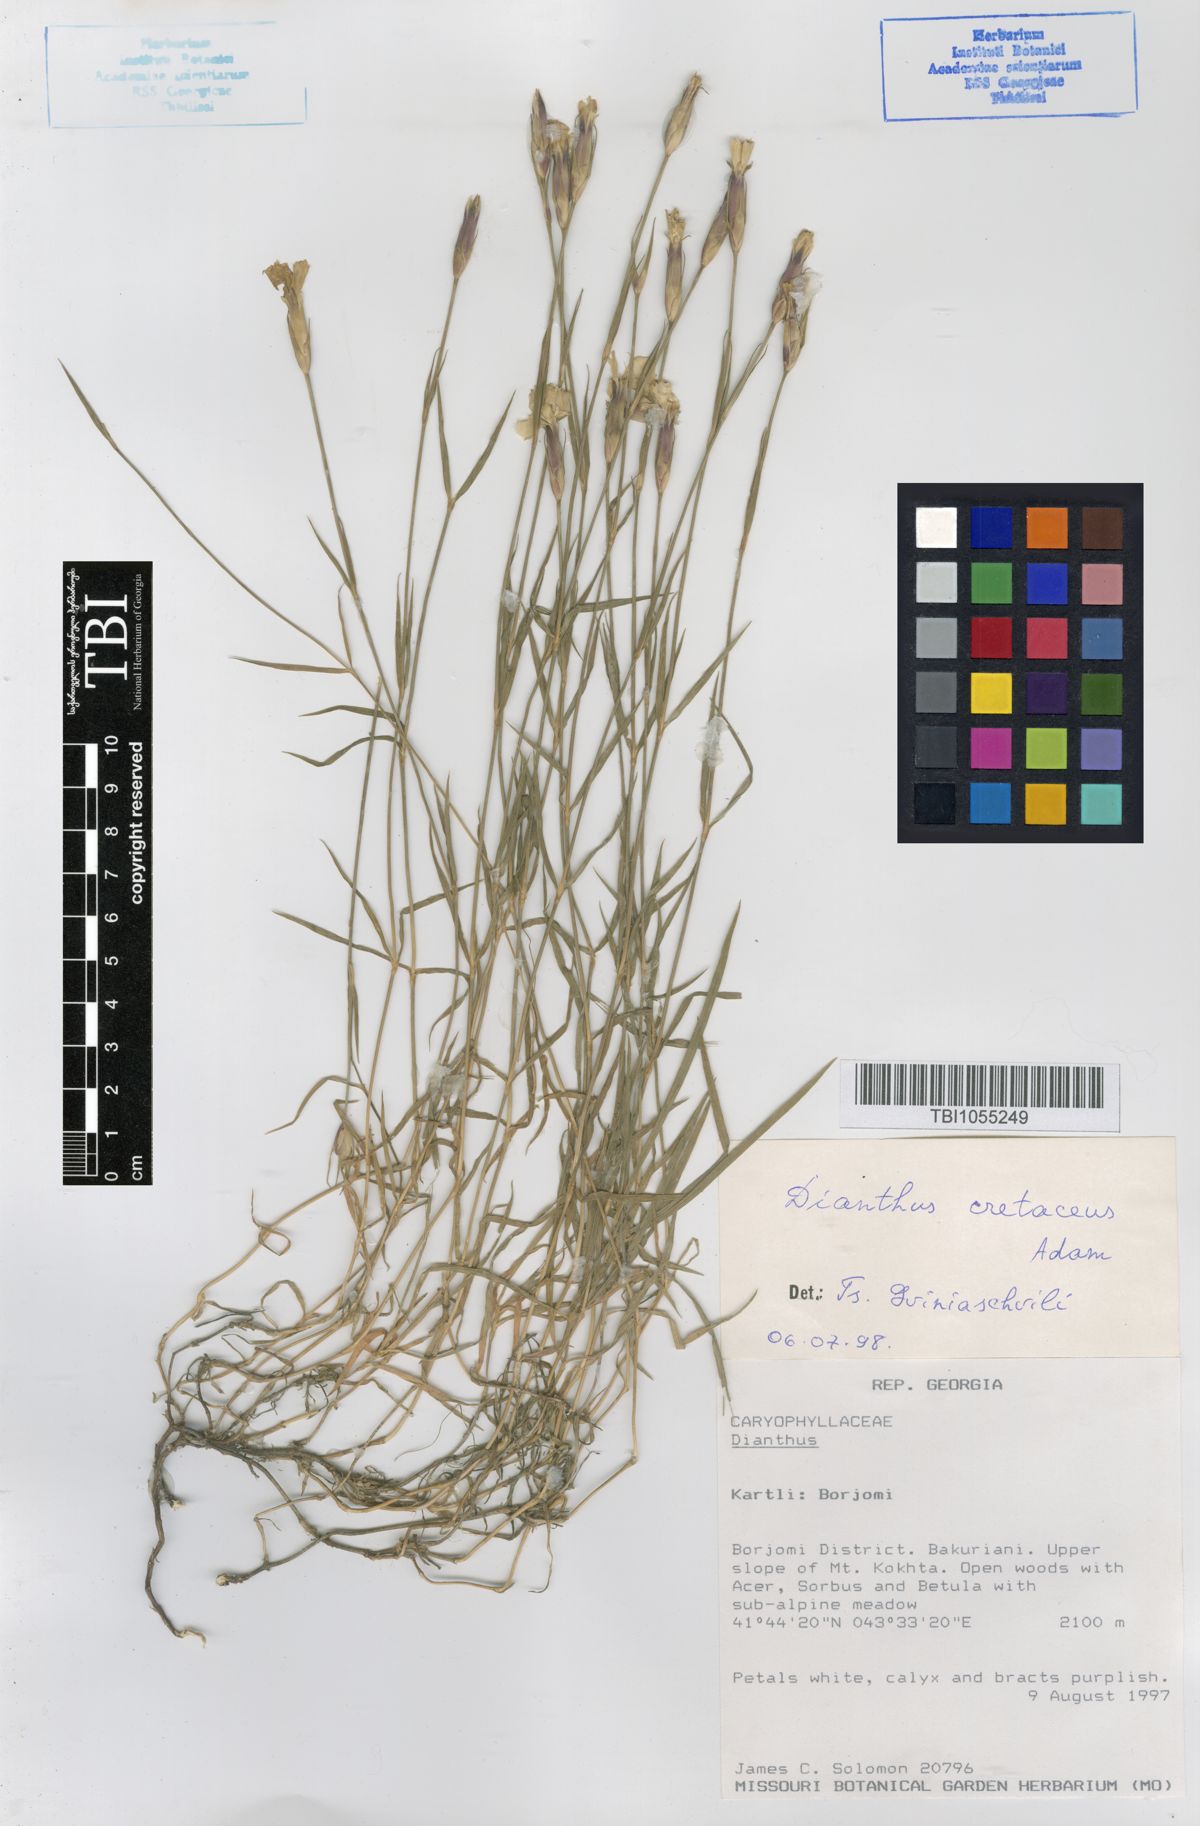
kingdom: Plantae
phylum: Tracheophyta
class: Magnoliopsida
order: Caryophyllales
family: Caryophyllaceae
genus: Dianthus
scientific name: Dianthus cretaceus
